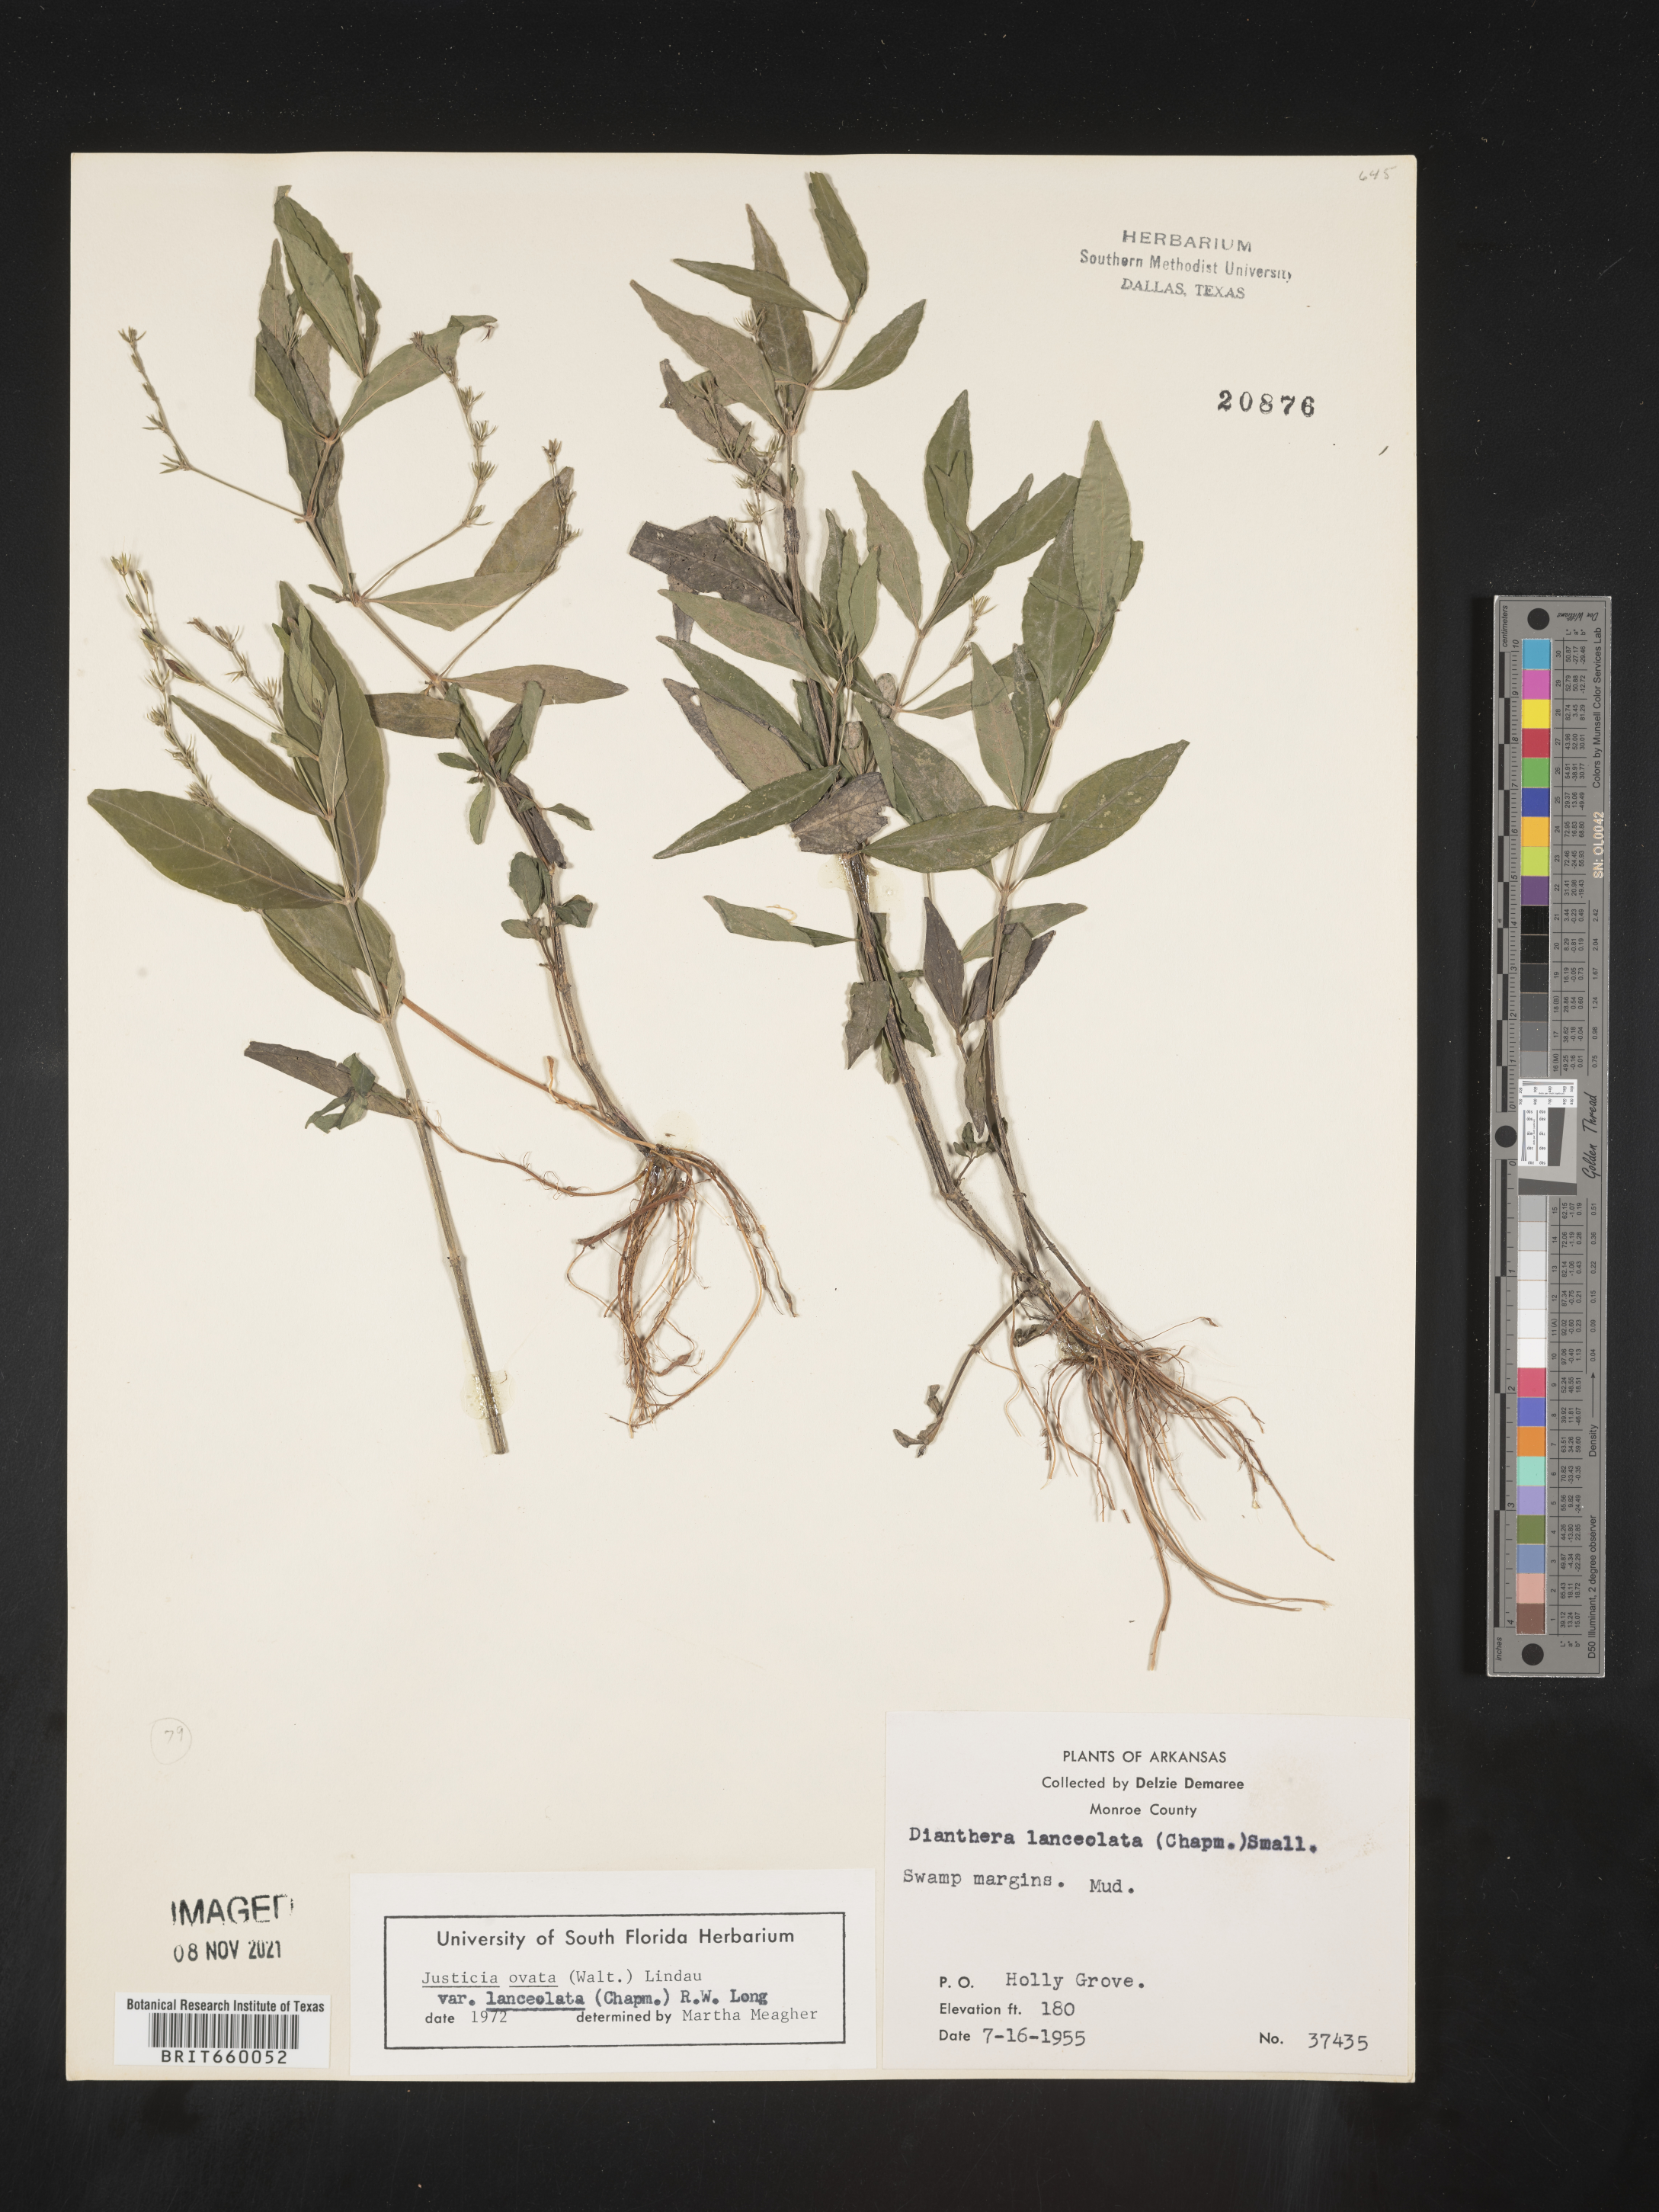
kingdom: Plantae
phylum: Tracheophyta
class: Magnoliopsida
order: Lamiales
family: Acanthaceae
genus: Justicia
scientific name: Justicia lanceolata
